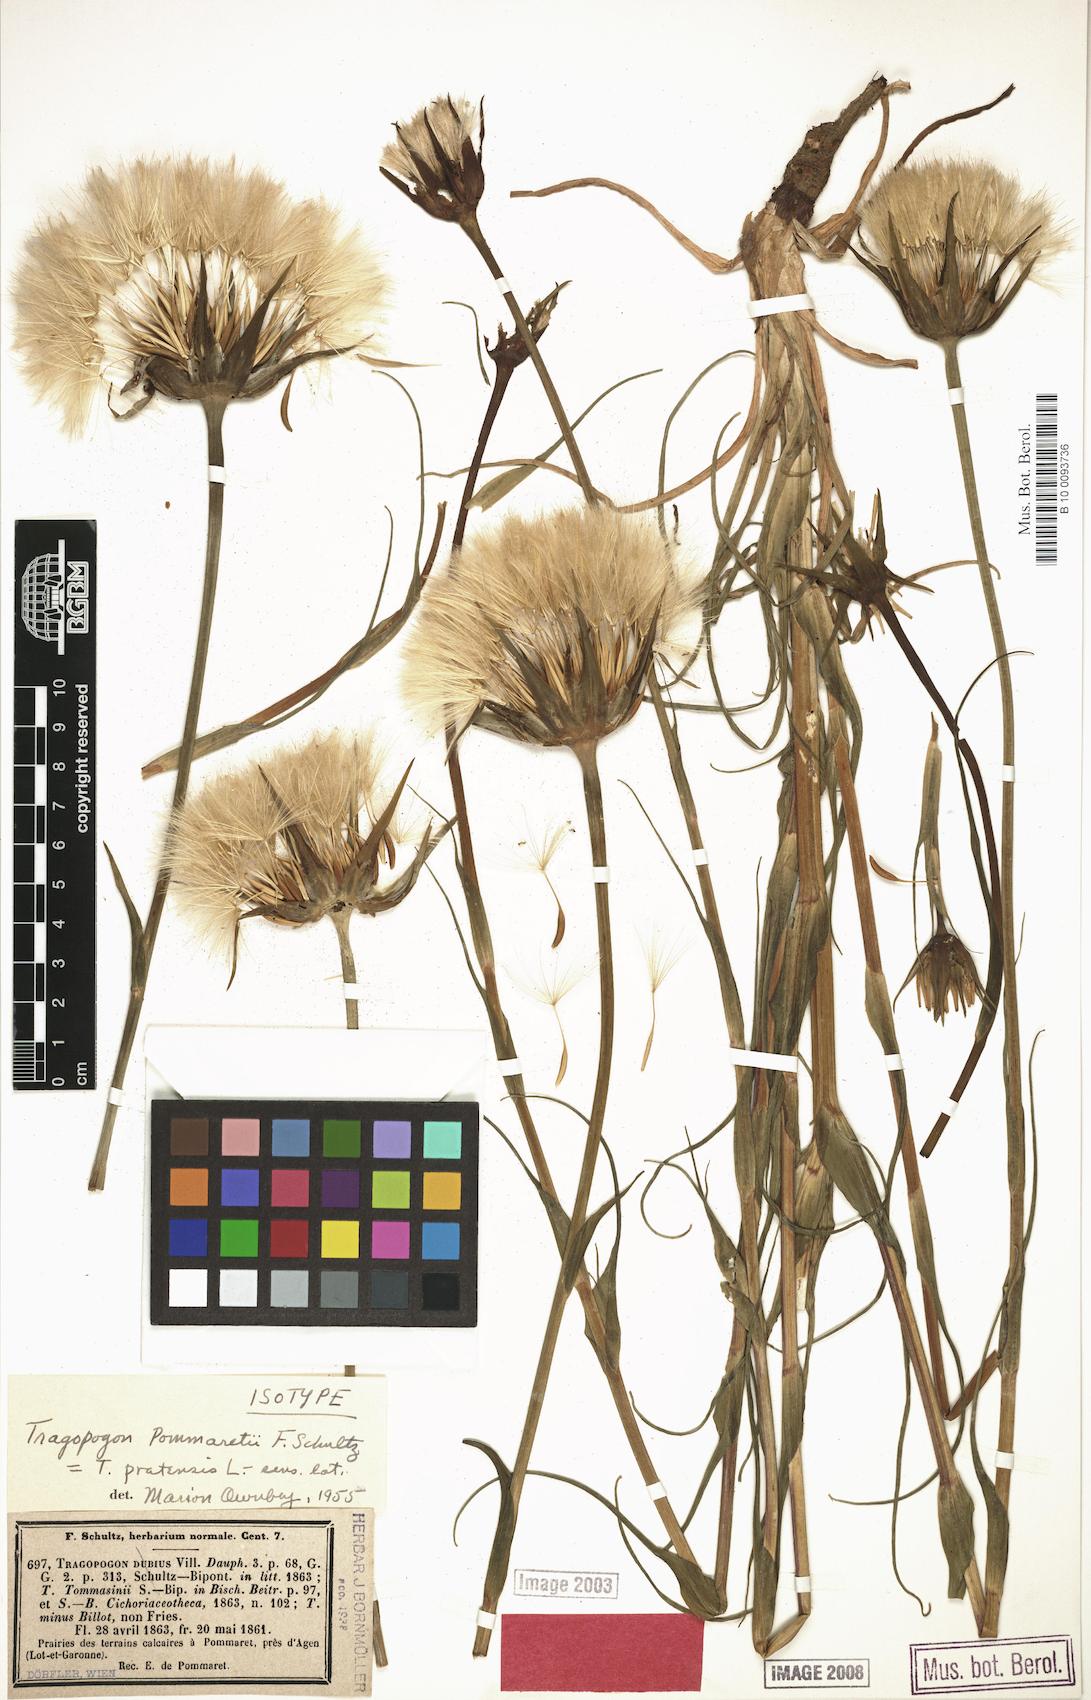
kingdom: Plantae
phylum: Tracheophyta
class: Magnoliopsida
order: Asterales
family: Asteraceae
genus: Tragopogon
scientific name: Tragopogon dubius
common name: Yellow salsify
